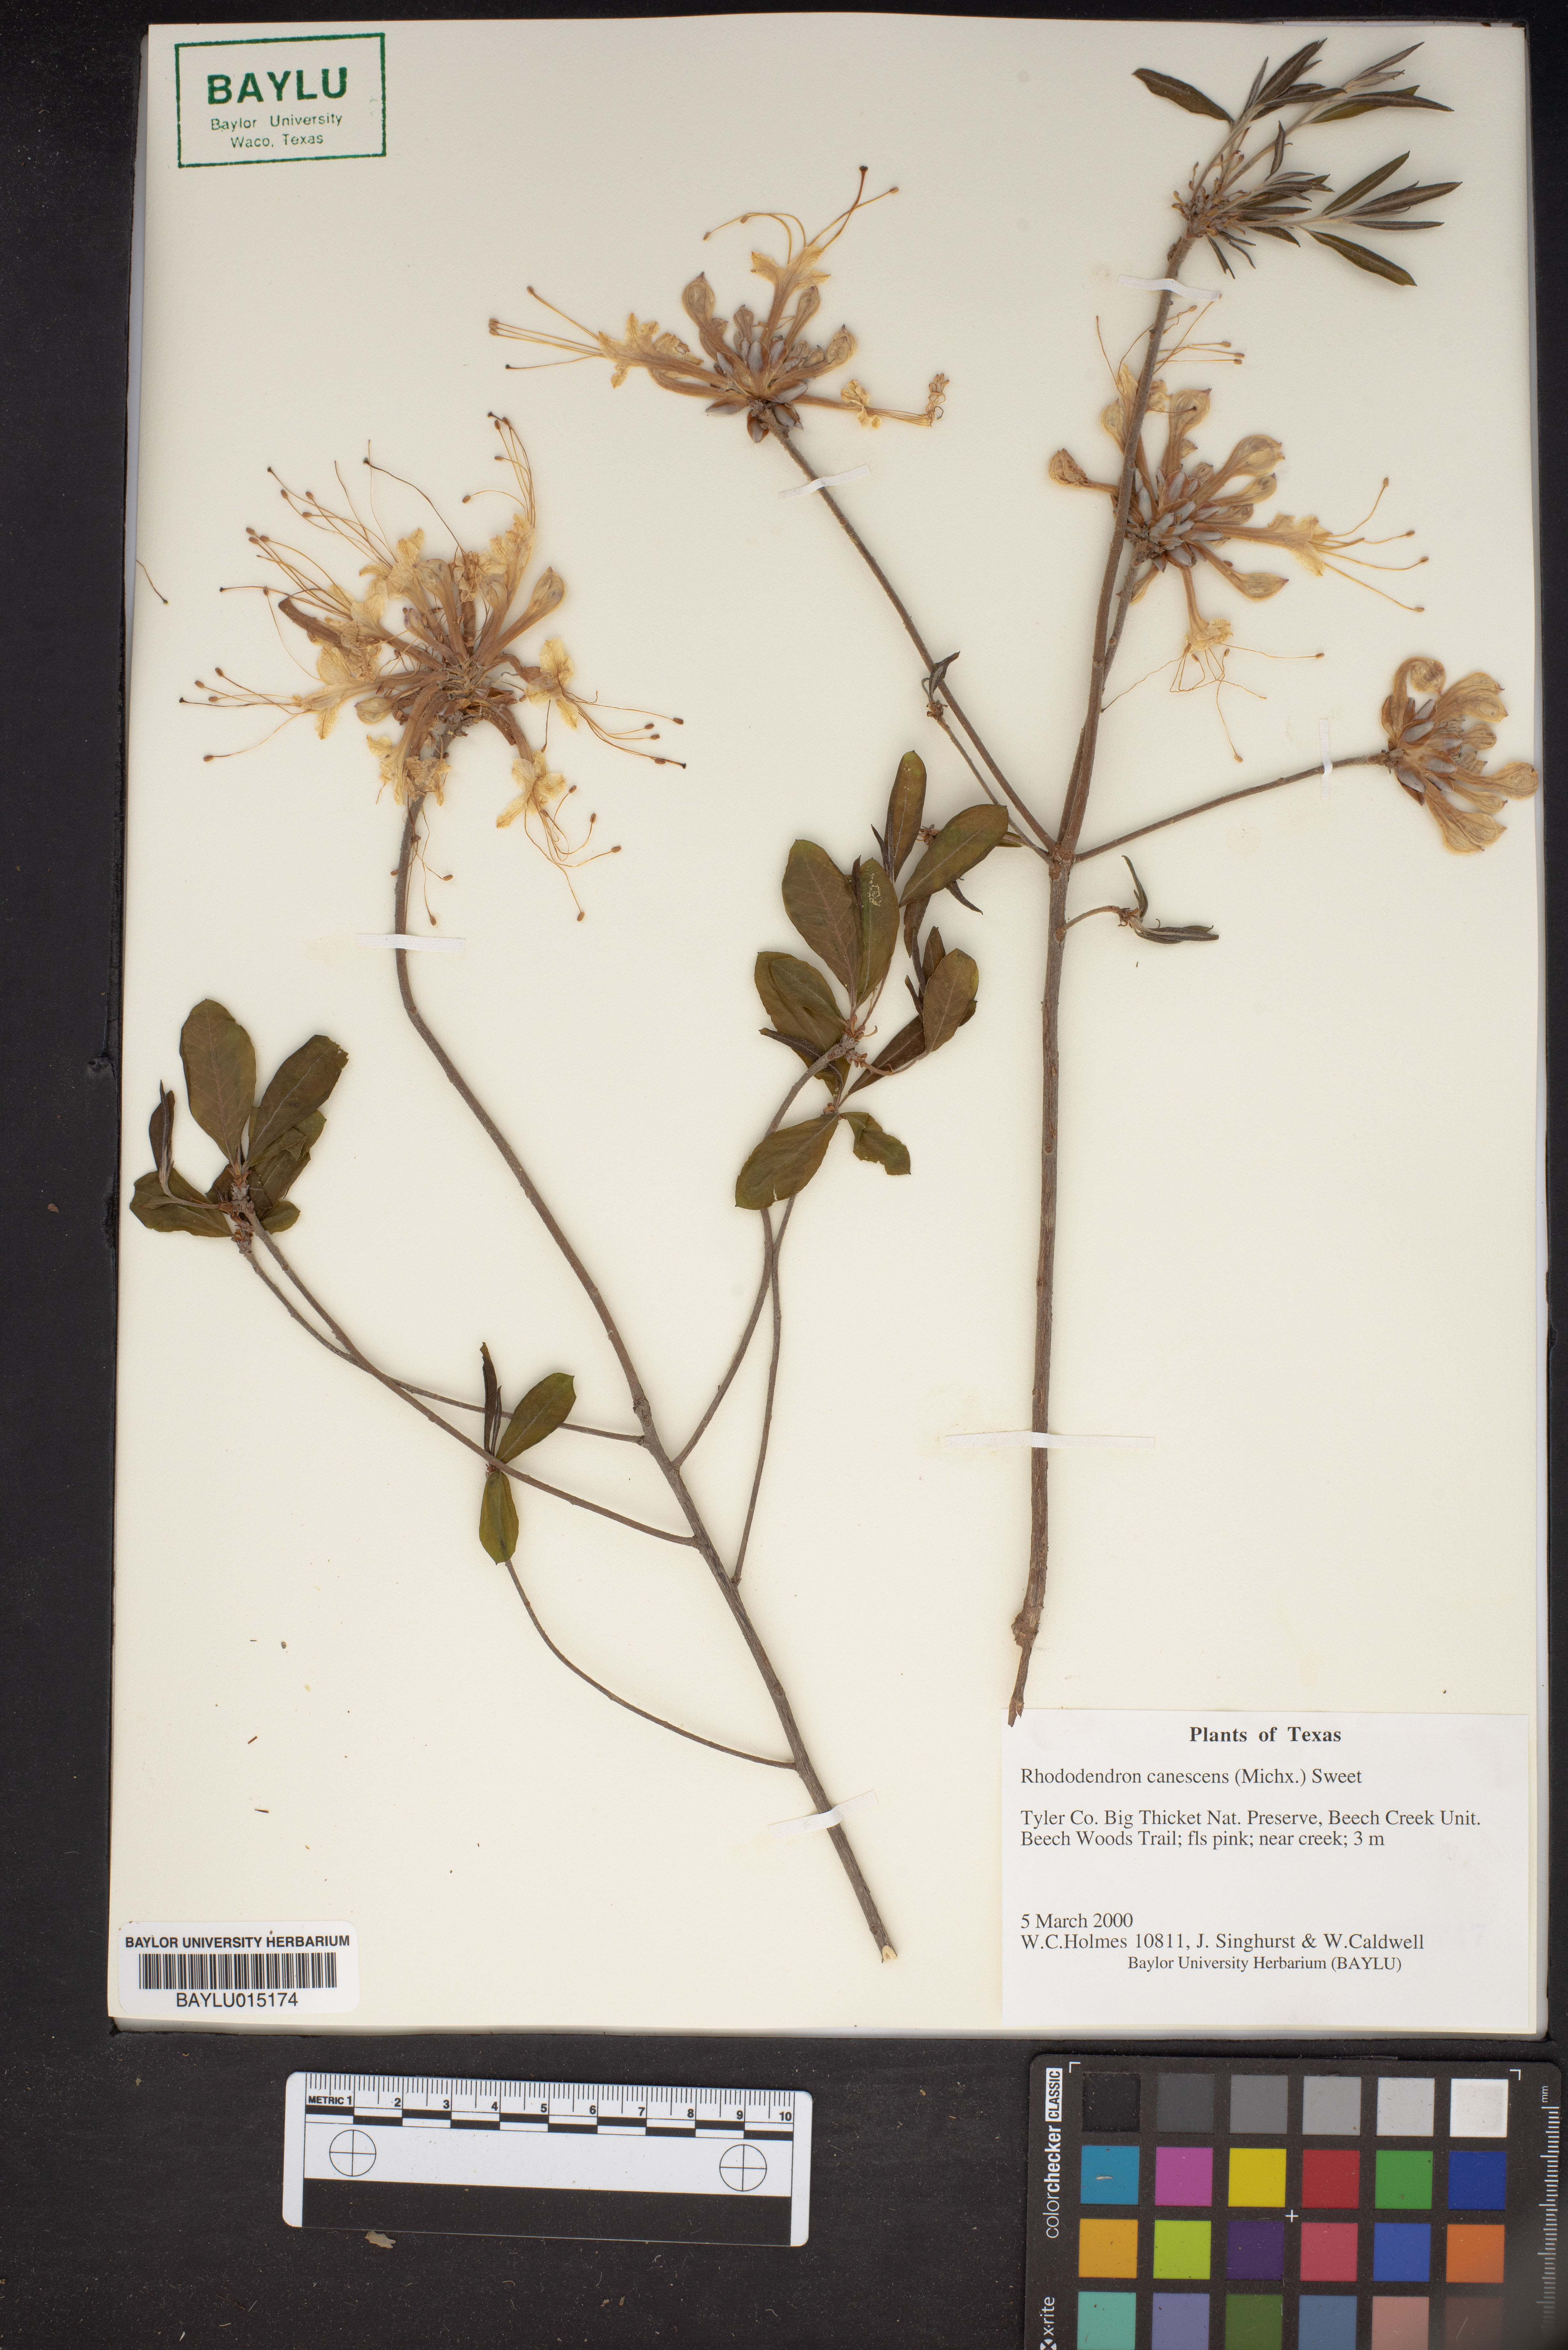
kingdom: Plantae
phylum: Tracheophyta
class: Magnoliopsida
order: Ericales
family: Ericaceae
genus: Rhododendron
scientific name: Rhododendron canescens
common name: Mountain azalea
